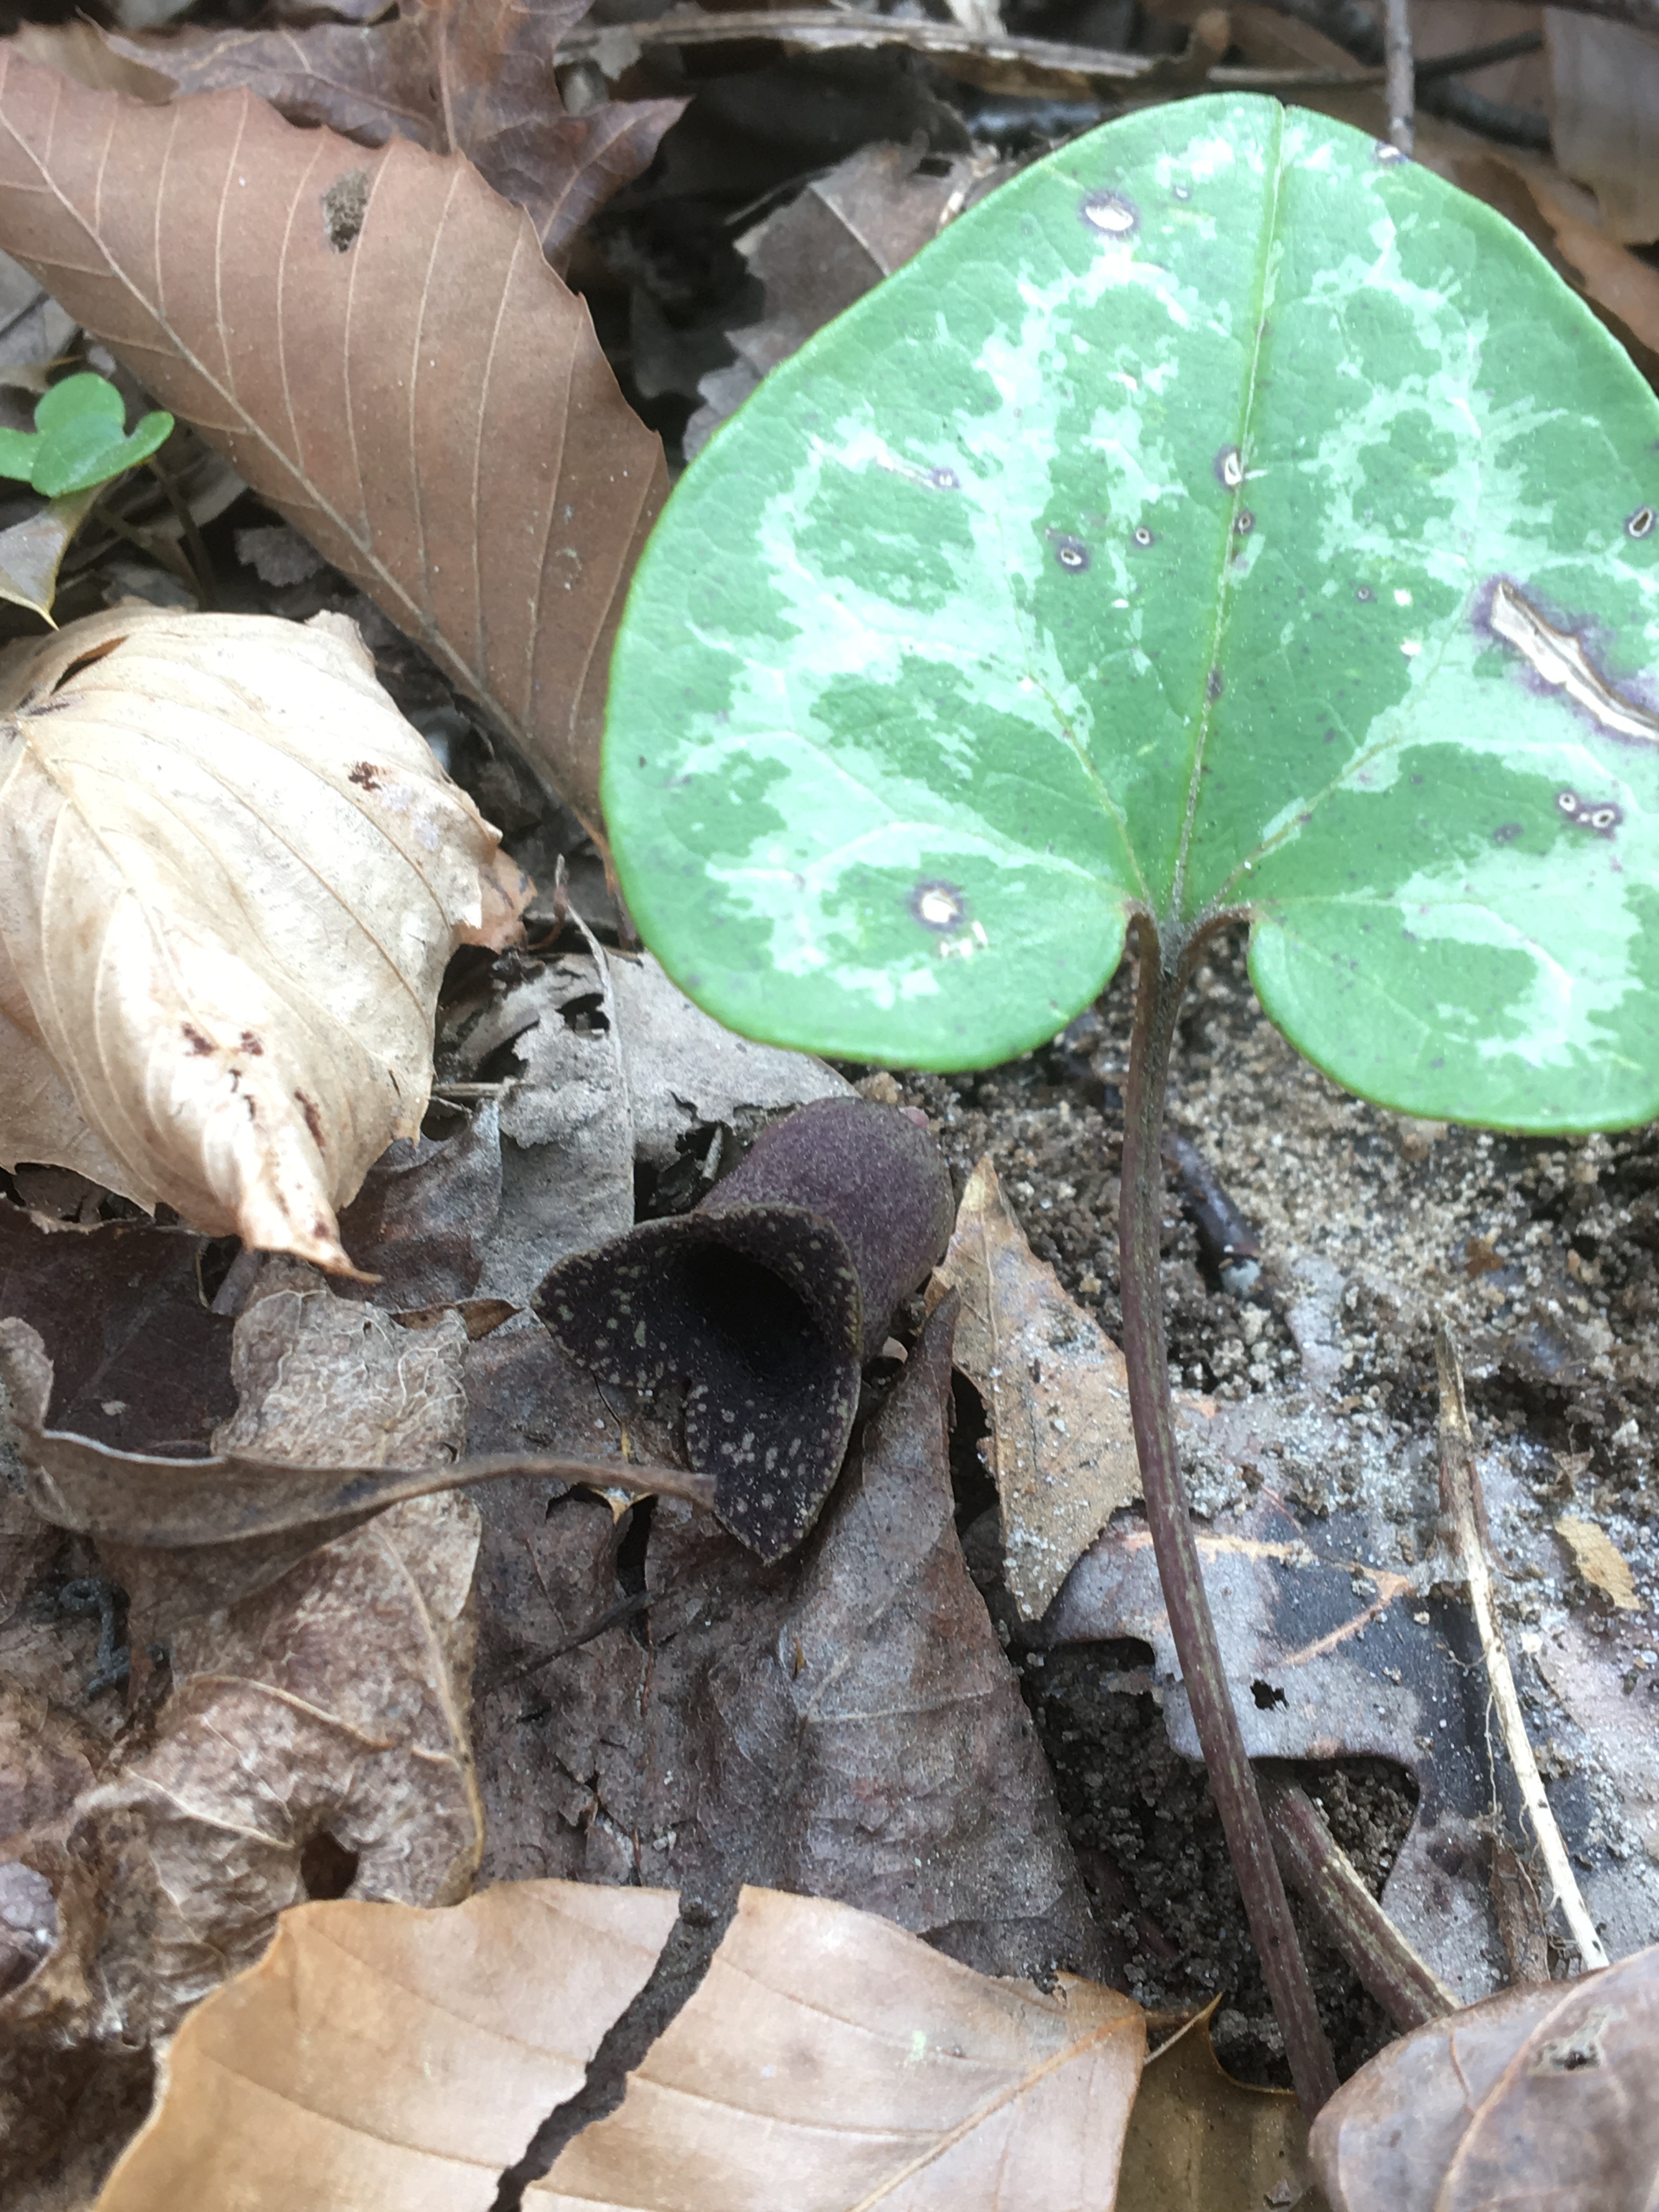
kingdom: Plantae
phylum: Tracheophyta
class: Magnoliopsida
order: Piperales
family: Aristolochiaceae
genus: Hexastylis
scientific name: Hexastylis virginica
